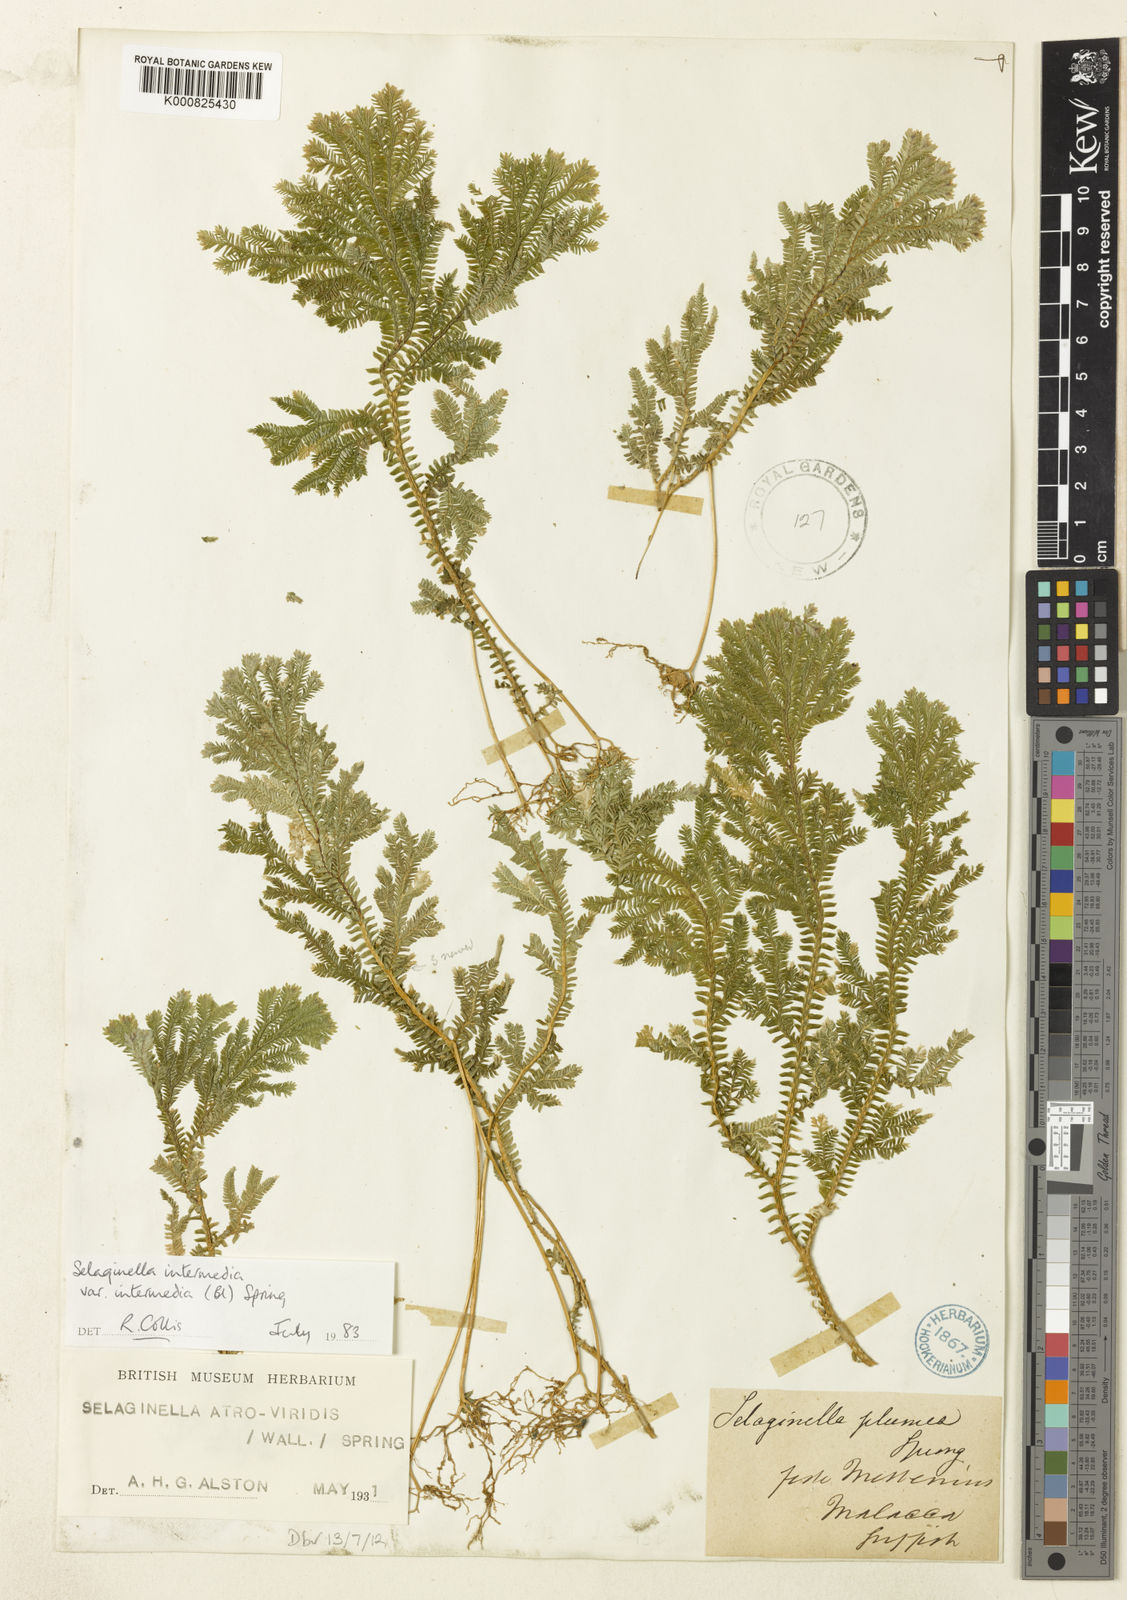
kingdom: Plantae
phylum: Tracheophyta
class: Lycopodiopsida
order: Selaginellales
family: Selaginellaceae
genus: Selaginella
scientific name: Selaginella intermedia
